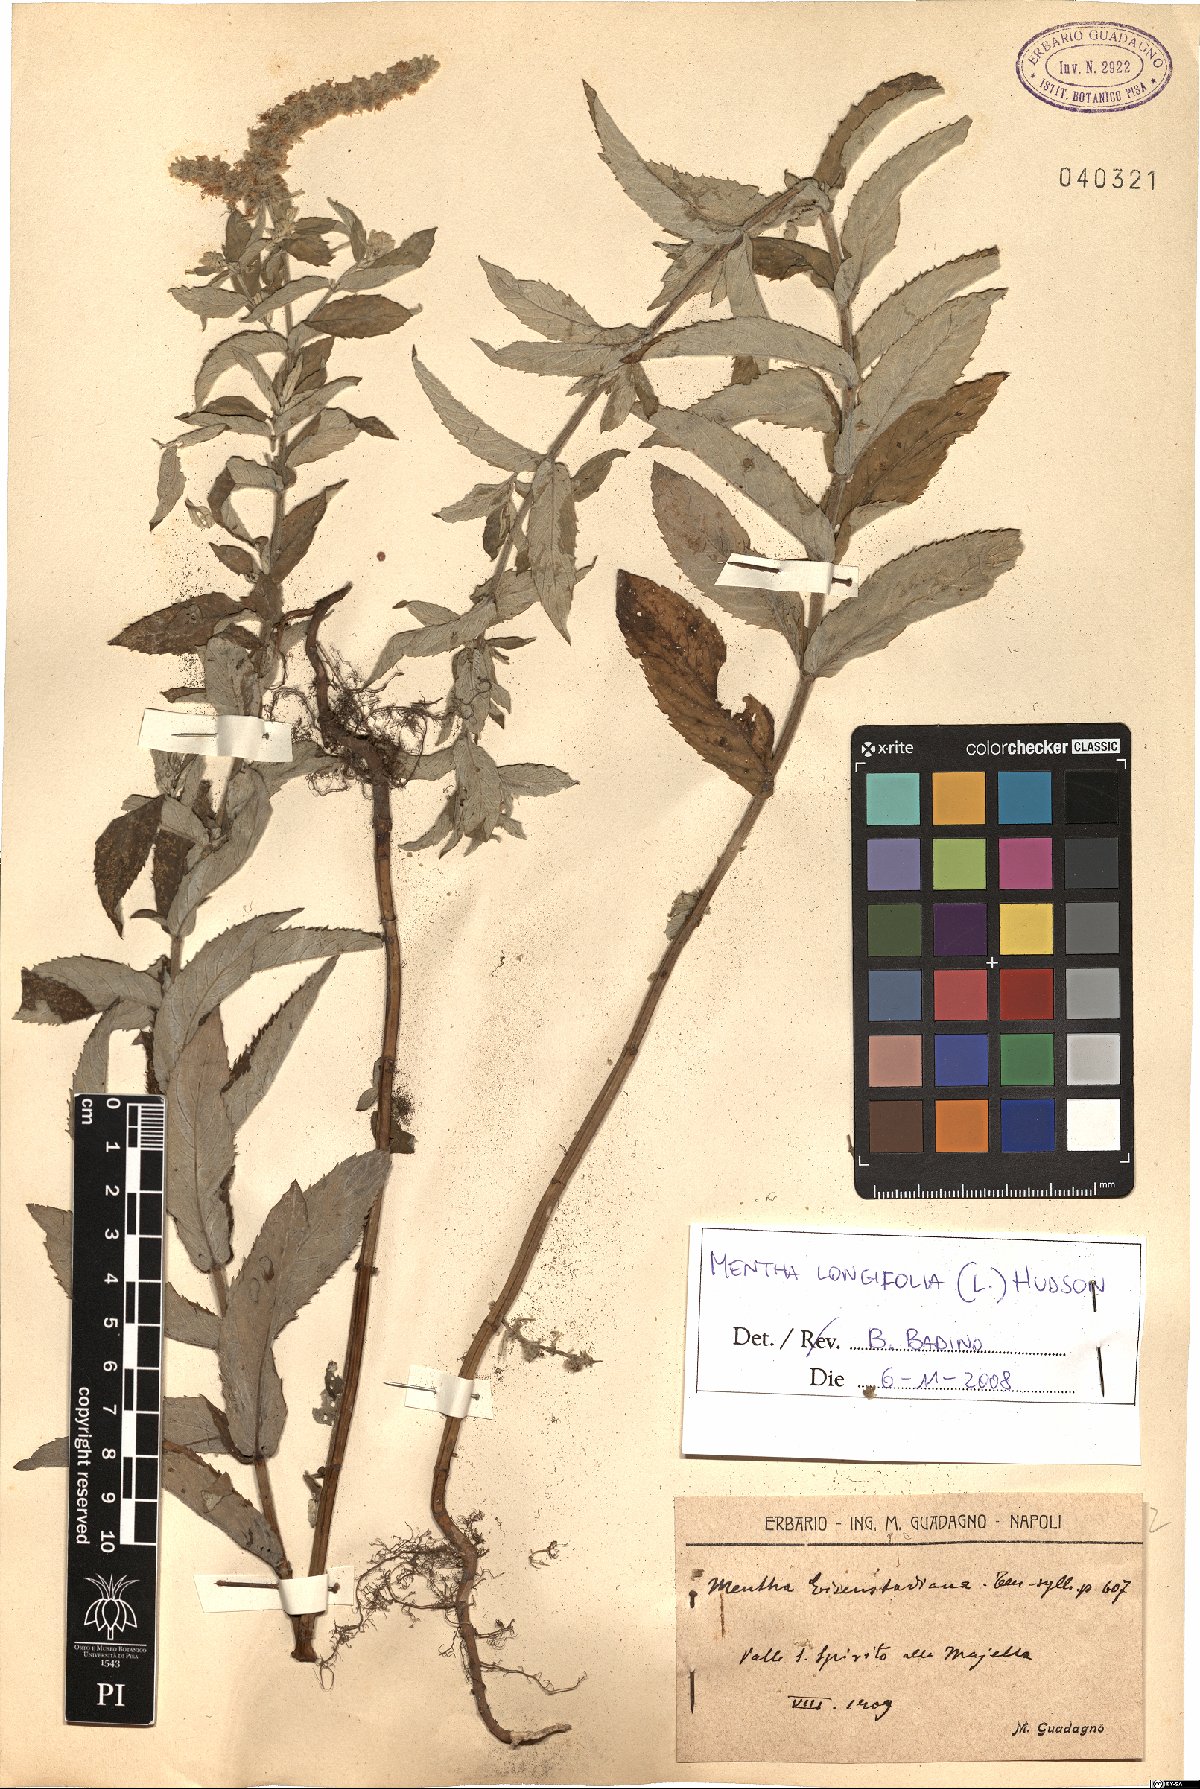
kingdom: Plantae
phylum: Tracheophyta
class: Magnoliopsida
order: Lamiales
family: Lamiaceae
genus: Mentha
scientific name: Mentha longifolia
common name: Horse mint
